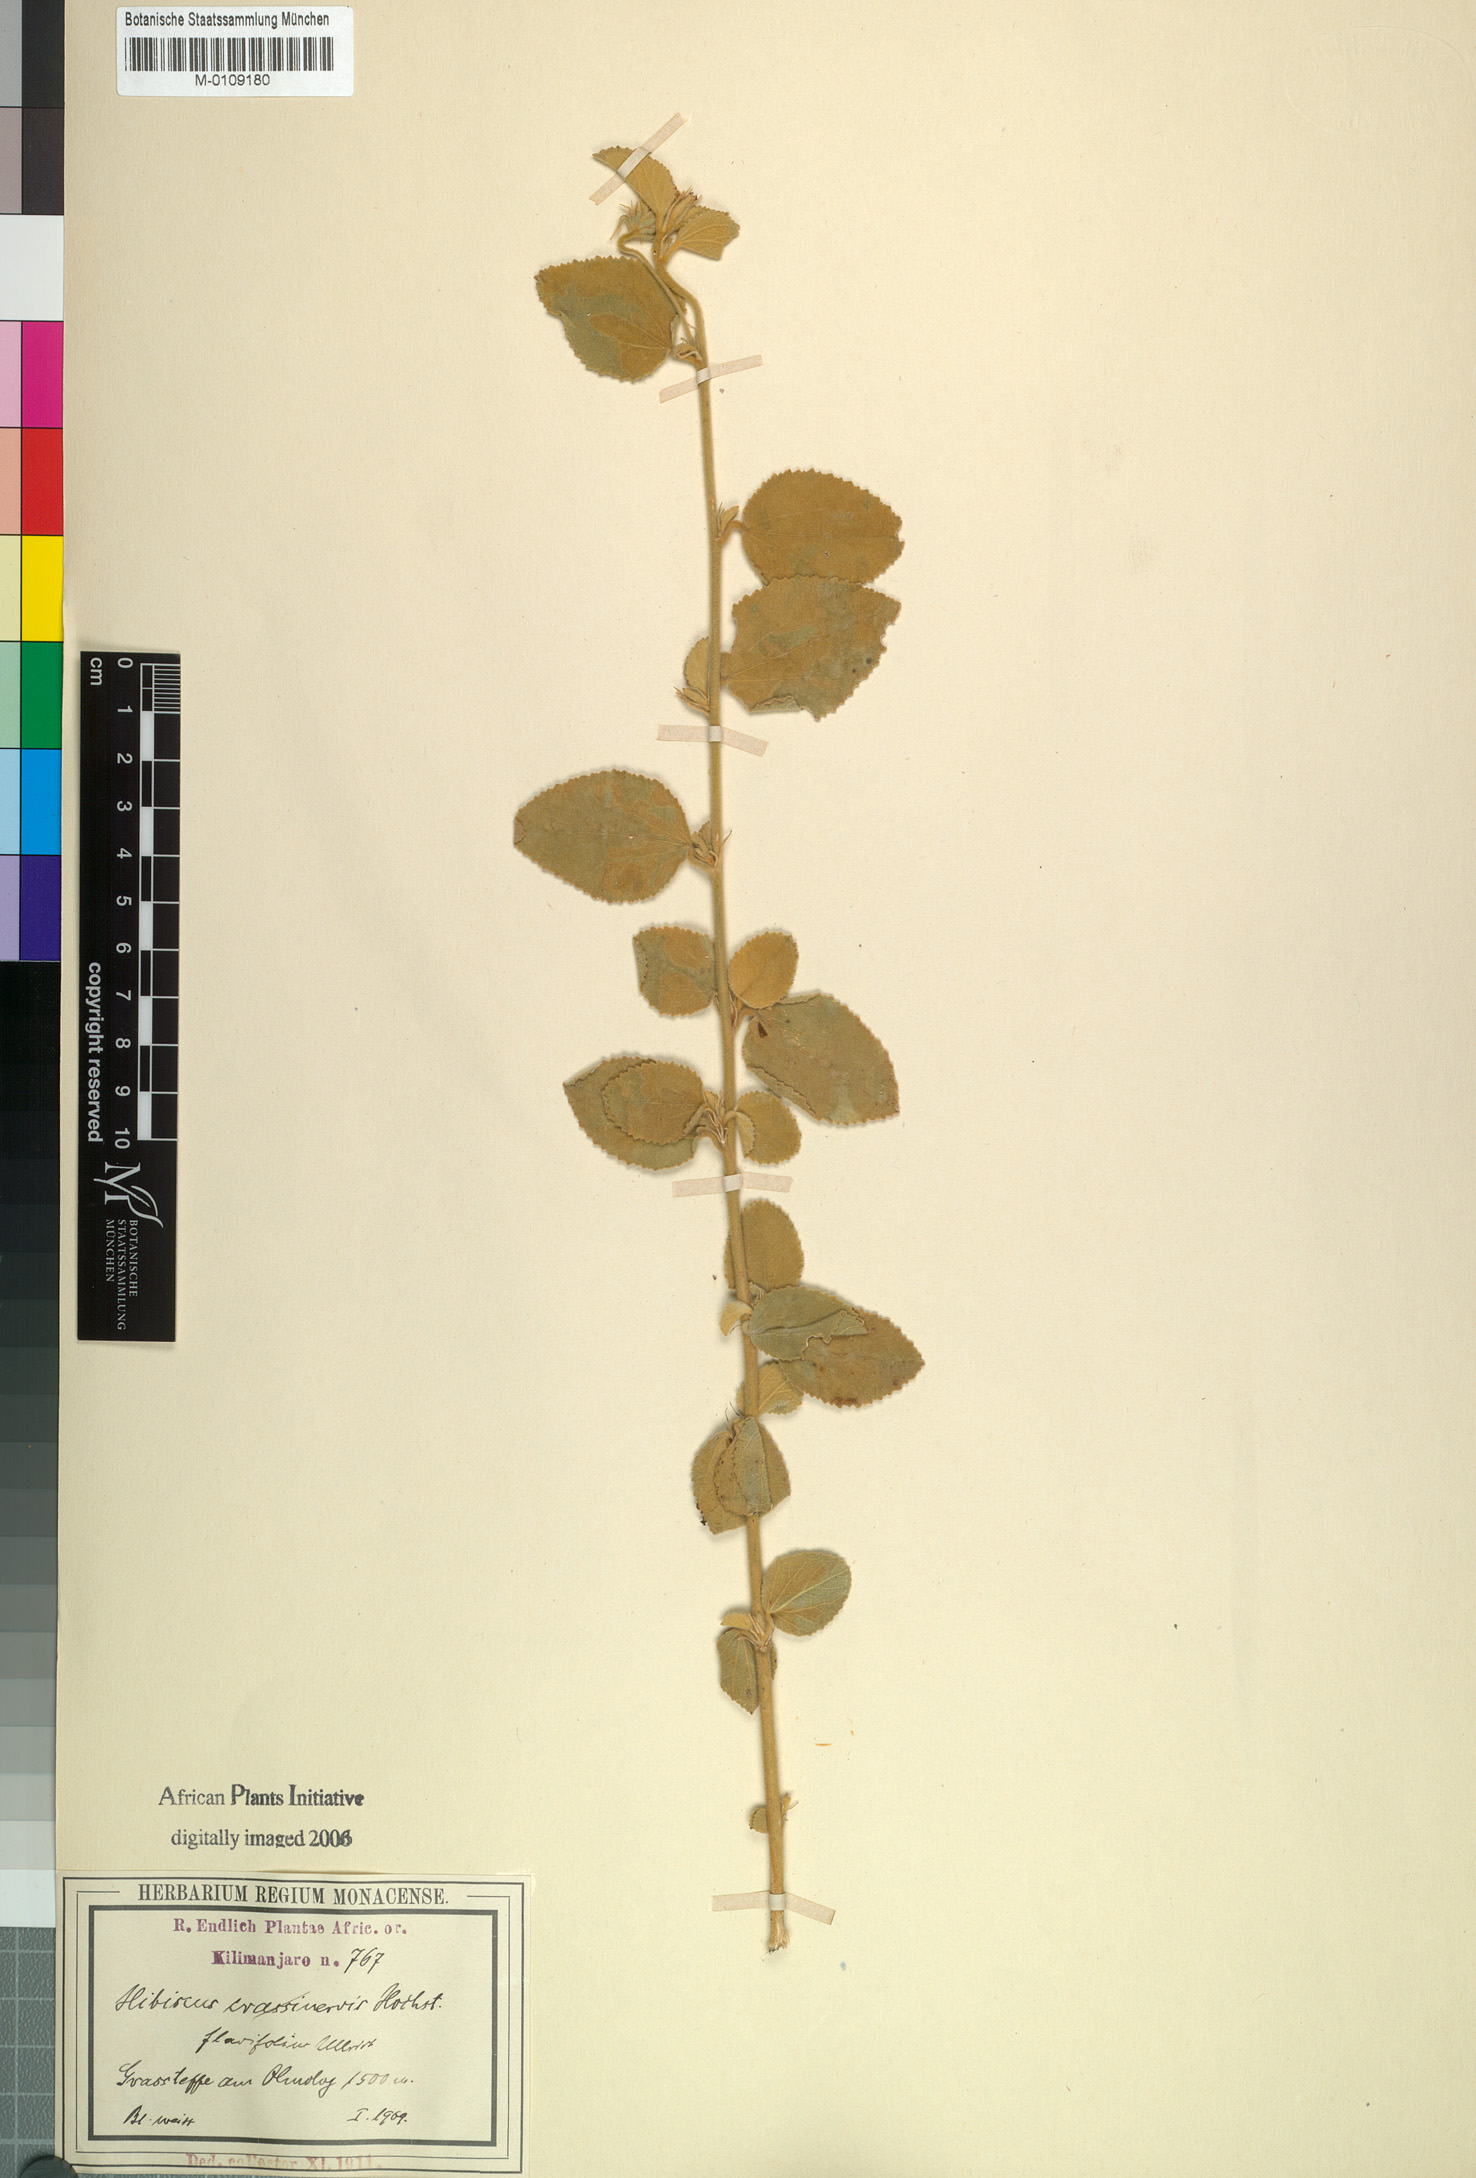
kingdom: Plantae
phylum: Tracheophyta
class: Magnoliopsida
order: Malvales
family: Malvaceae
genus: Hibiscus
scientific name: Hibiscus flavifolius
